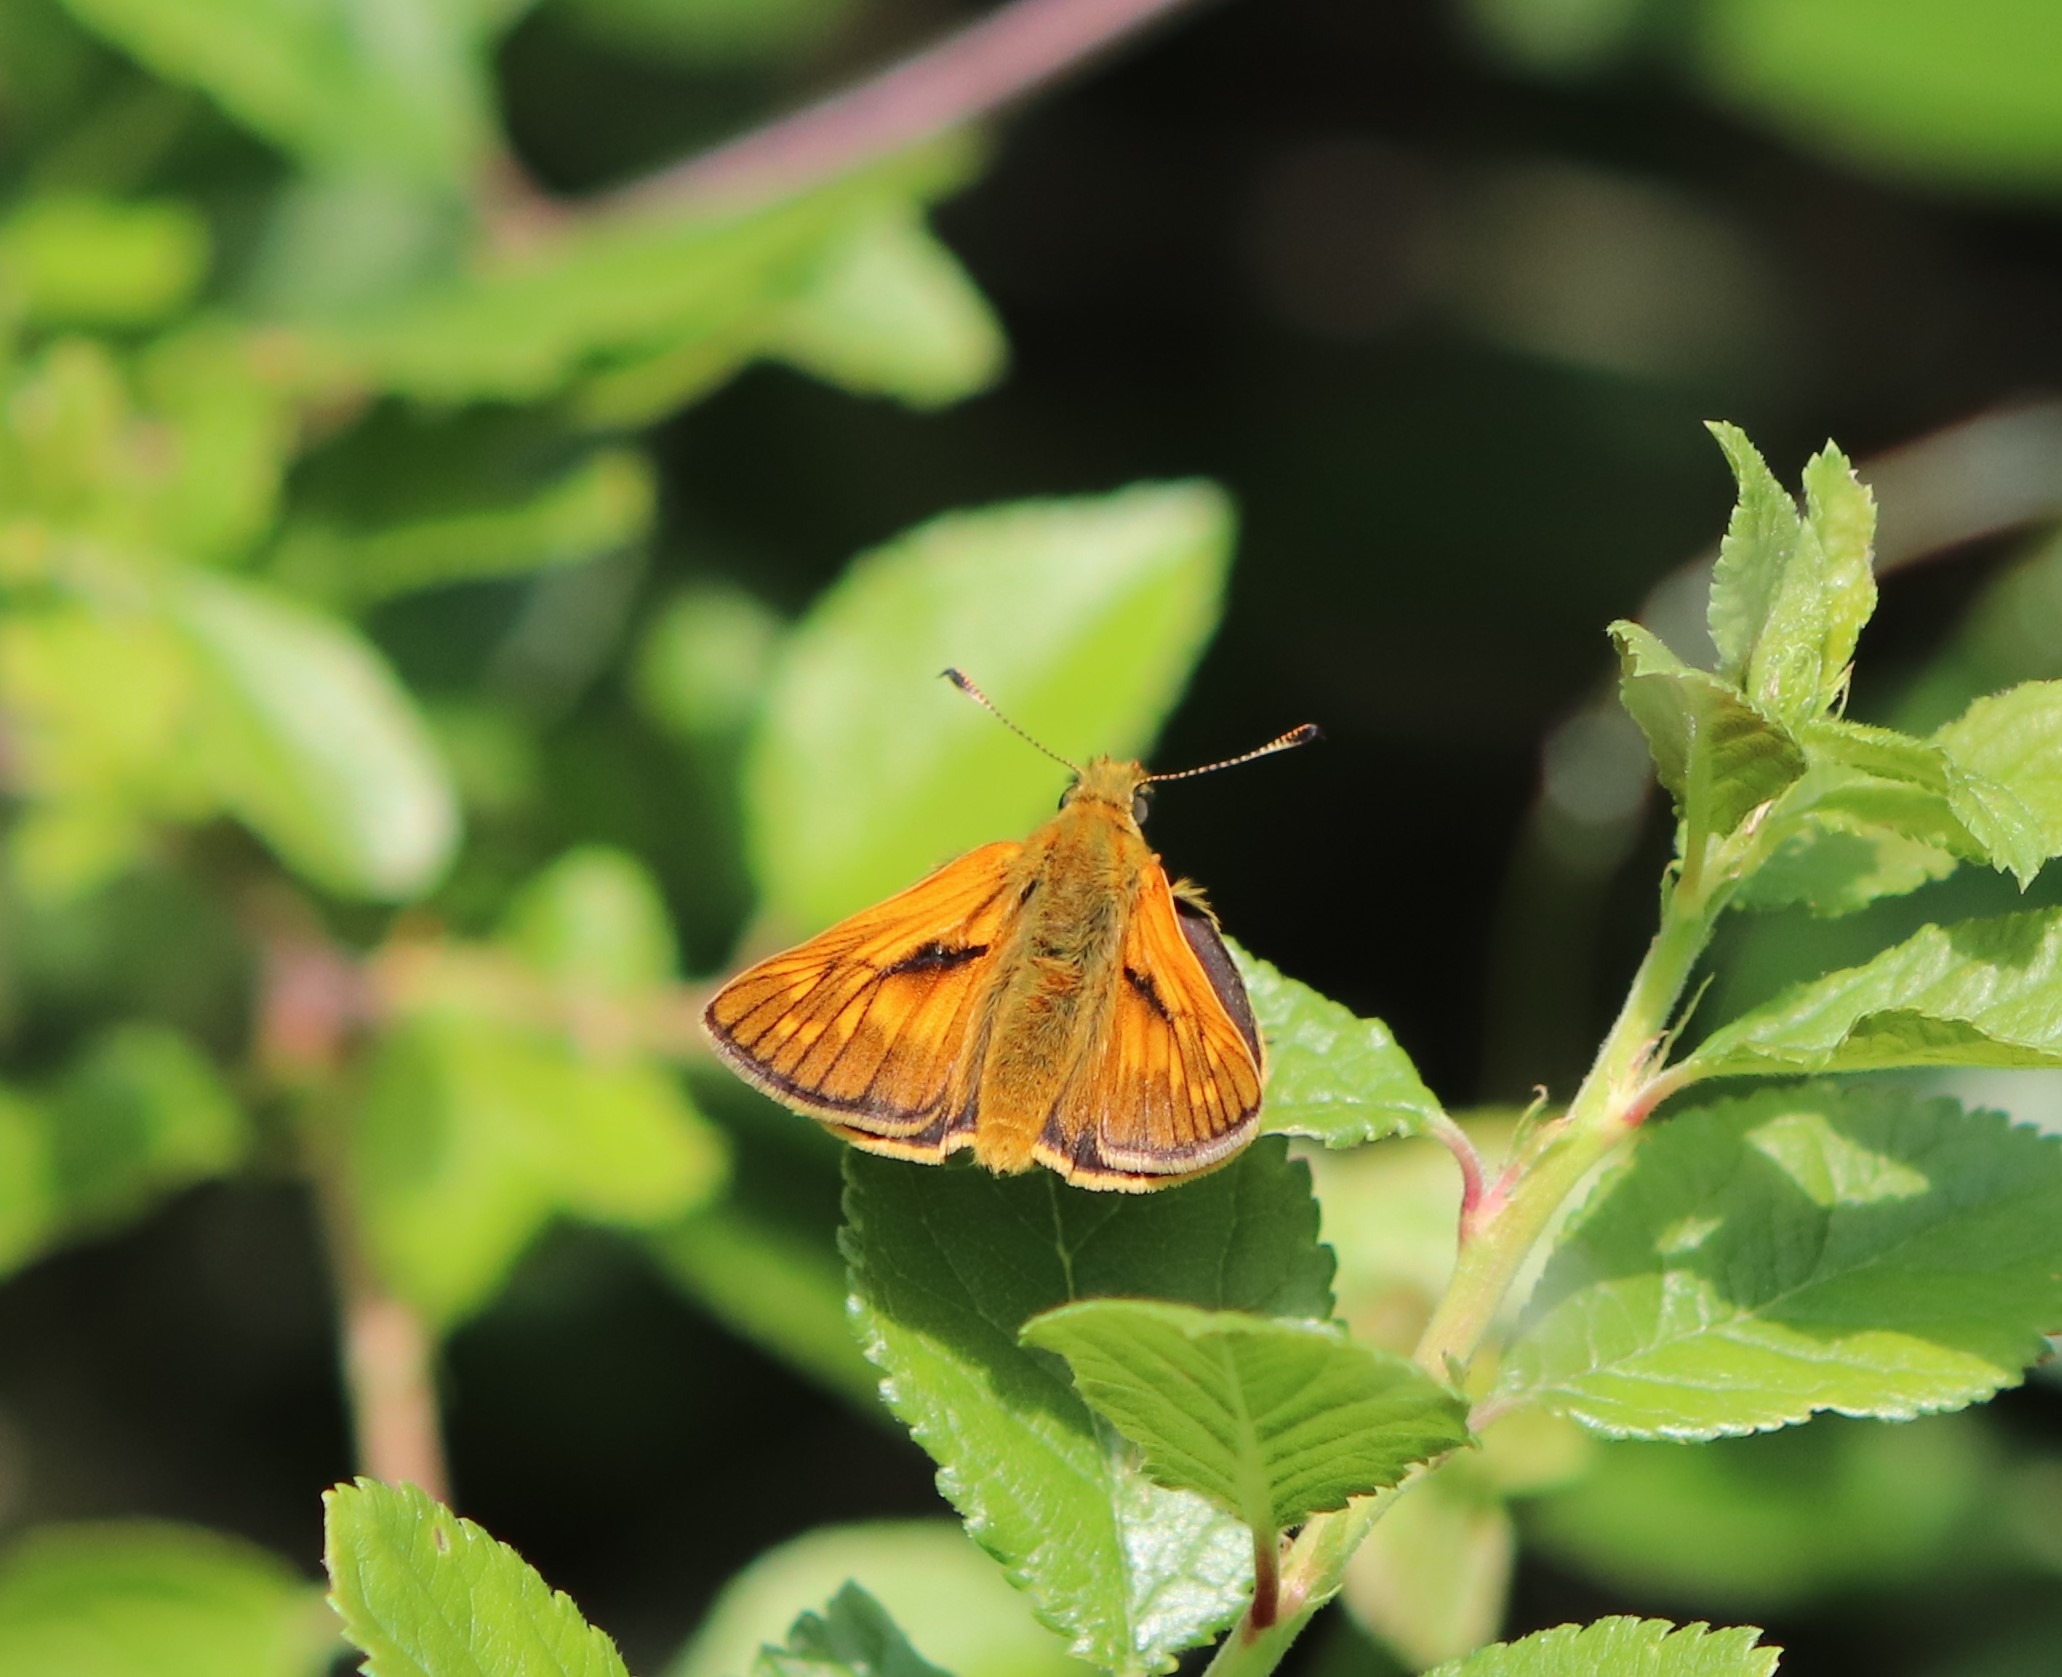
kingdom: Animalia
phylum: Arthropoda
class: Insecta
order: Lepidoptera
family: Hesperiidae
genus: Ochlodes
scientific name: Ochlodes venata
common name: Stor bredpande
